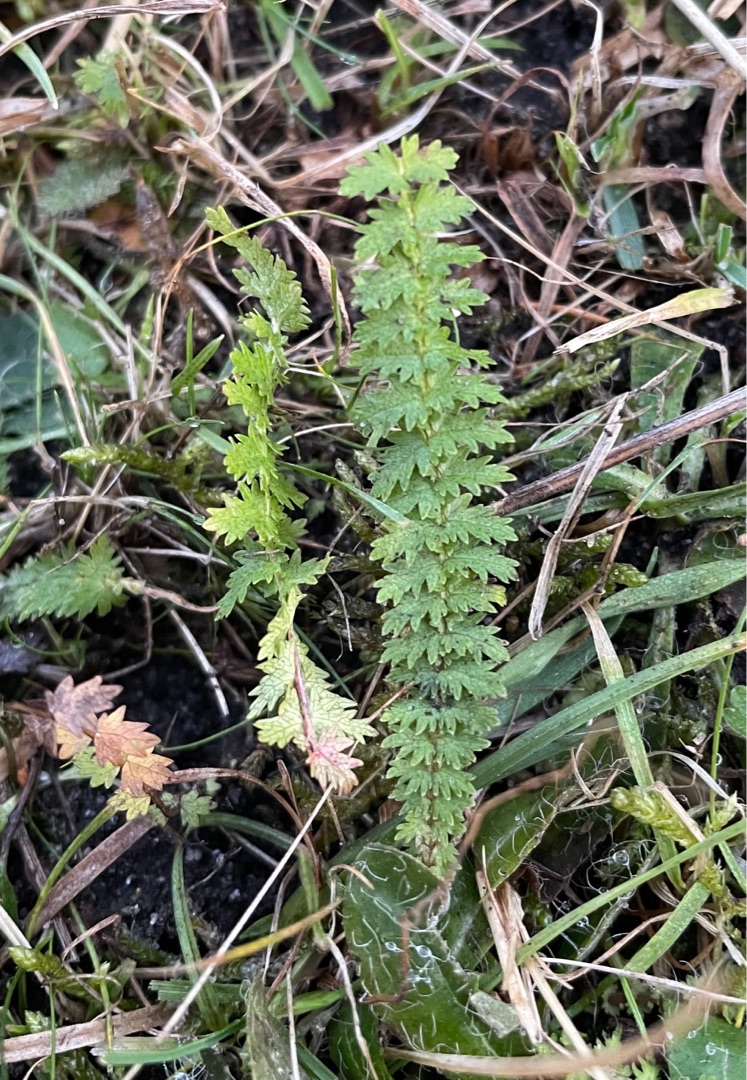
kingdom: Plantae
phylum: Tracheophyta
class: Magnoliopsida
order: Rosales
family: Rosaceae
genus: Filipendula
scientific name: Filipendula vulgaris
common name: Knoldet mjødurt
